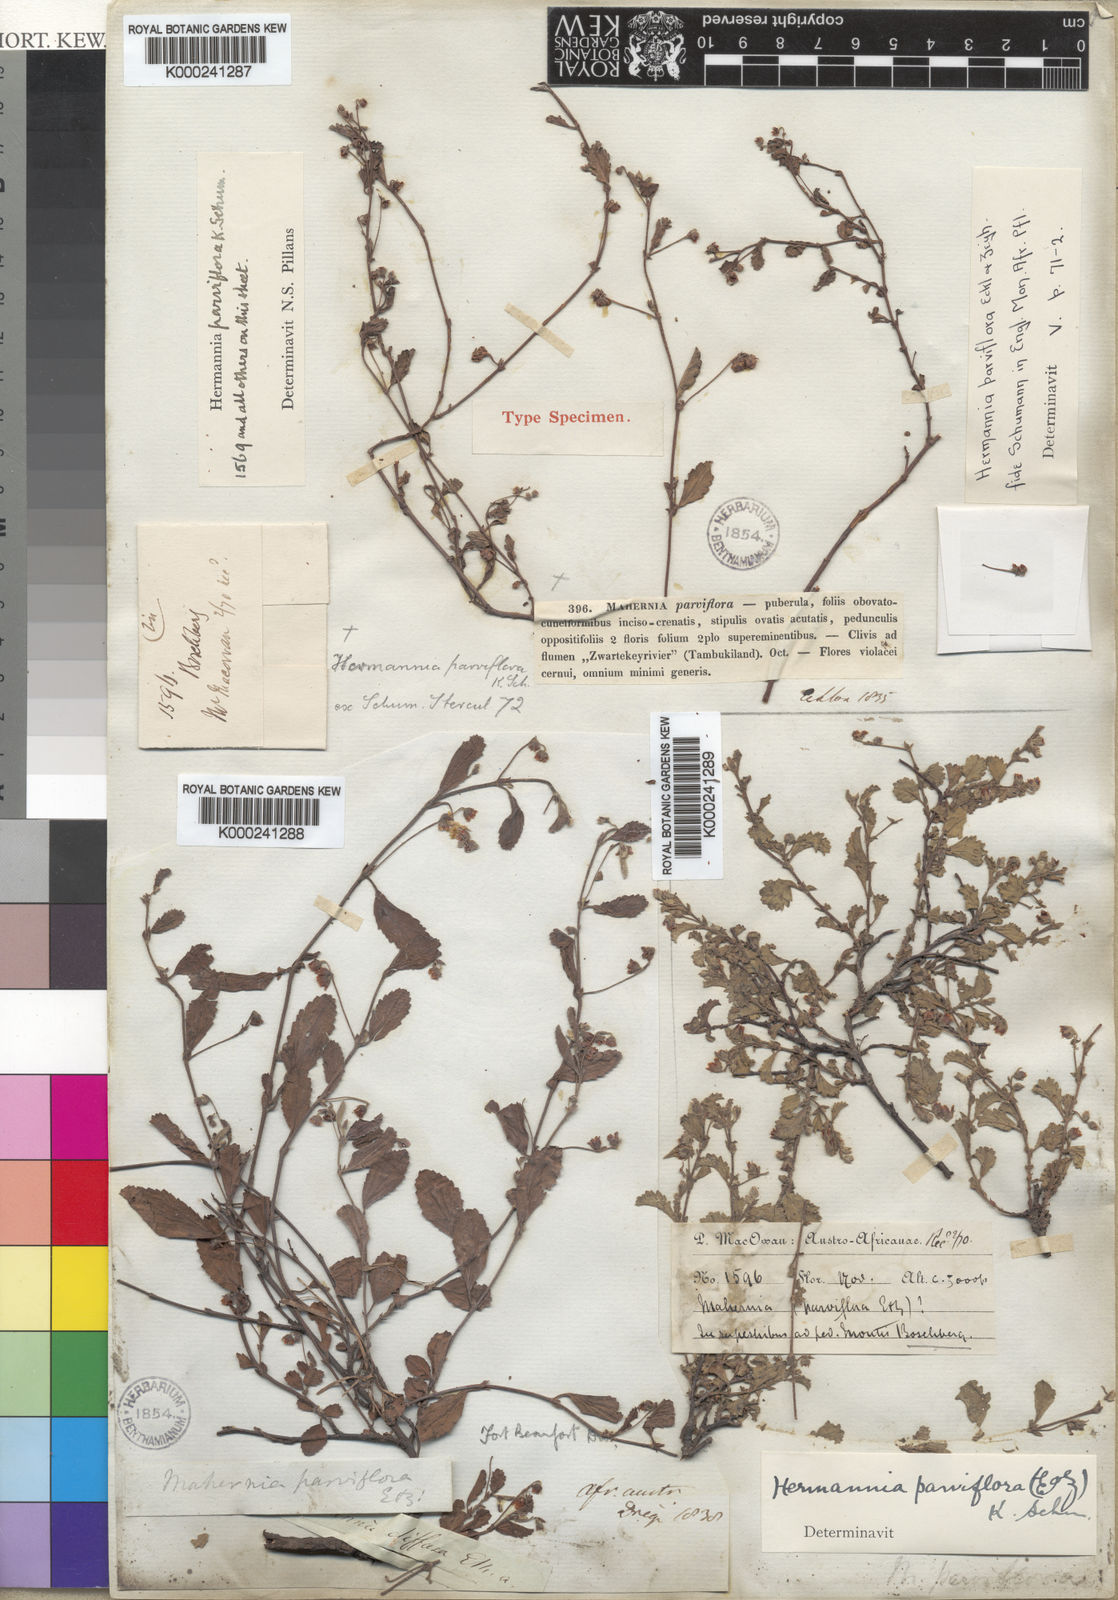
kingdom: Plantae
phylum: Tracheophyta
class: Magnoliopsida
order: Malvales
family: Malvaceae
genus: Hermannia
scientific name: Hermannia parviflora
